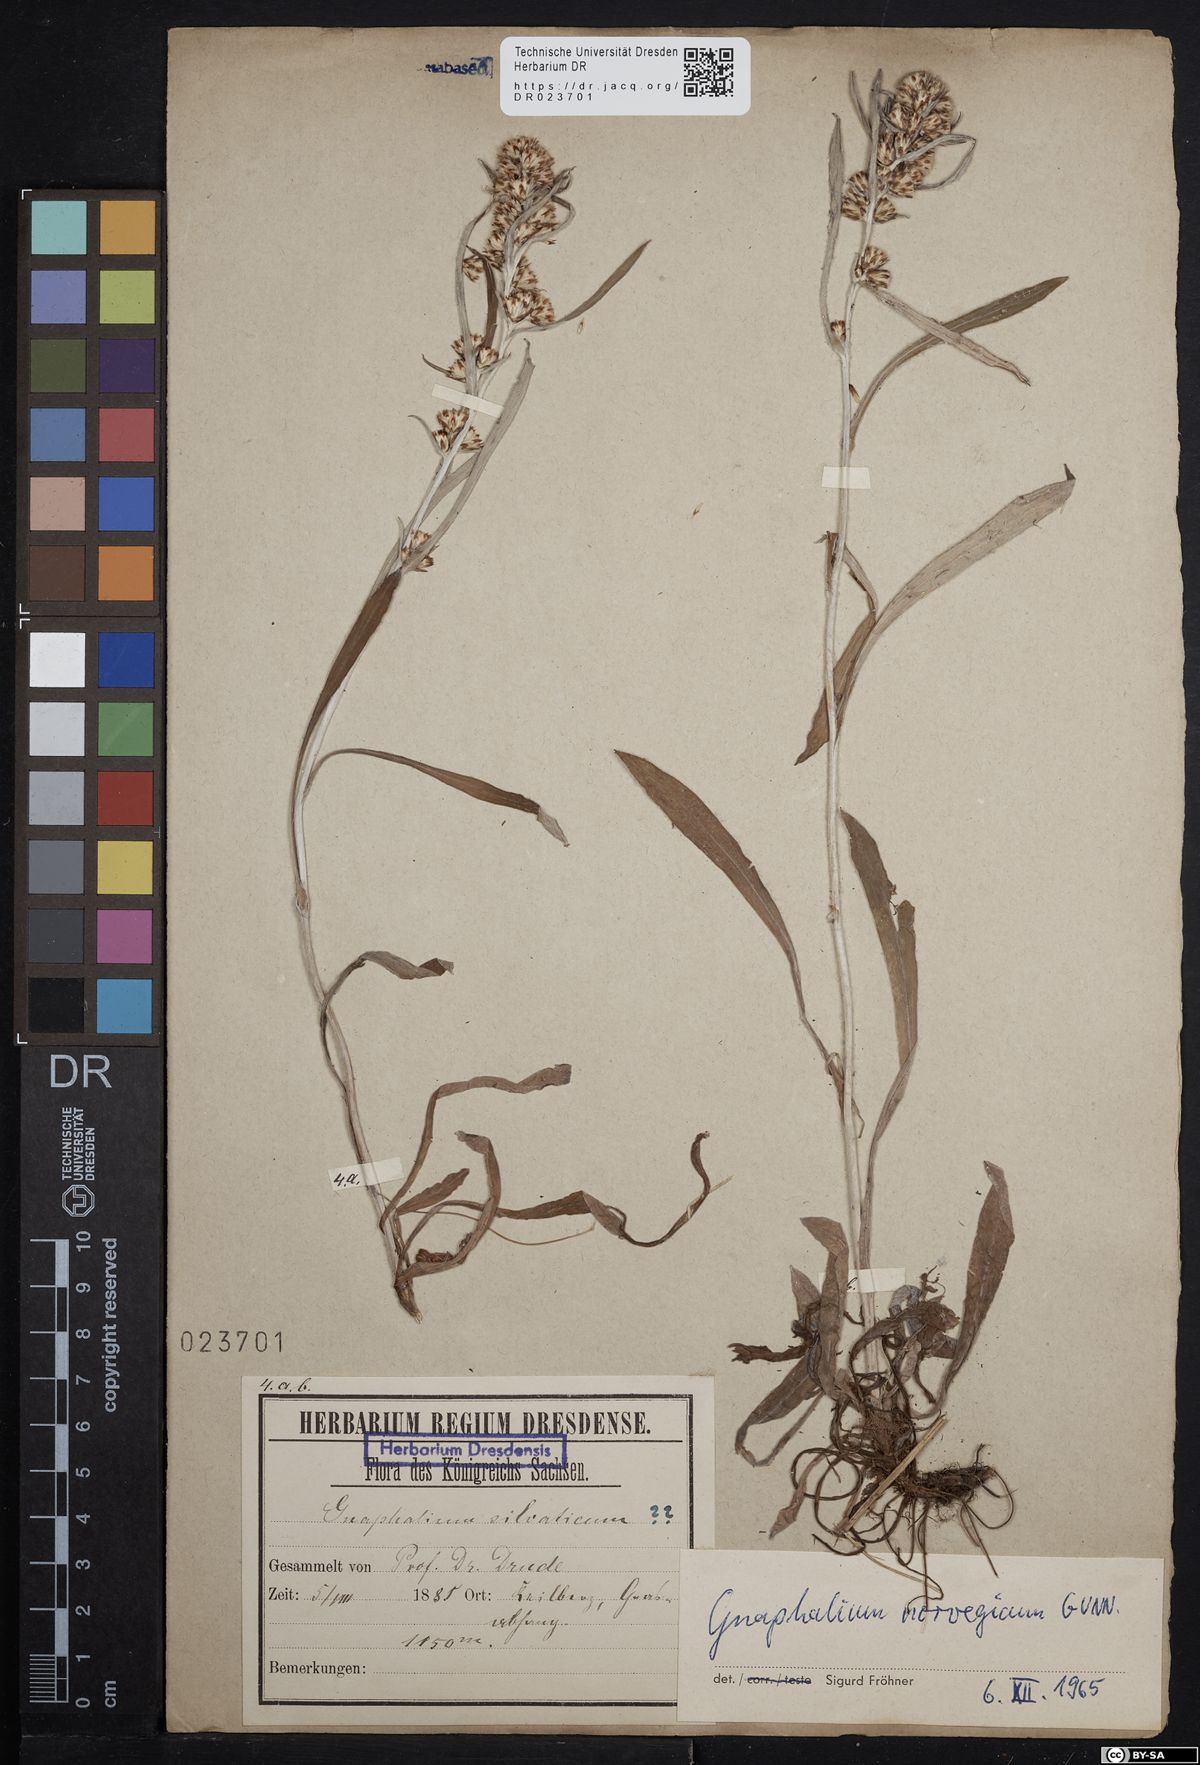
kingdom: Plantae
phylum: Tracheophyta
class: Magnoliopsida
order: Asterales
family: Asteraceae
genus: Omalotheca
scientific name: Omalotheca norvegica
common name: Norwegian arctic-cudweed
